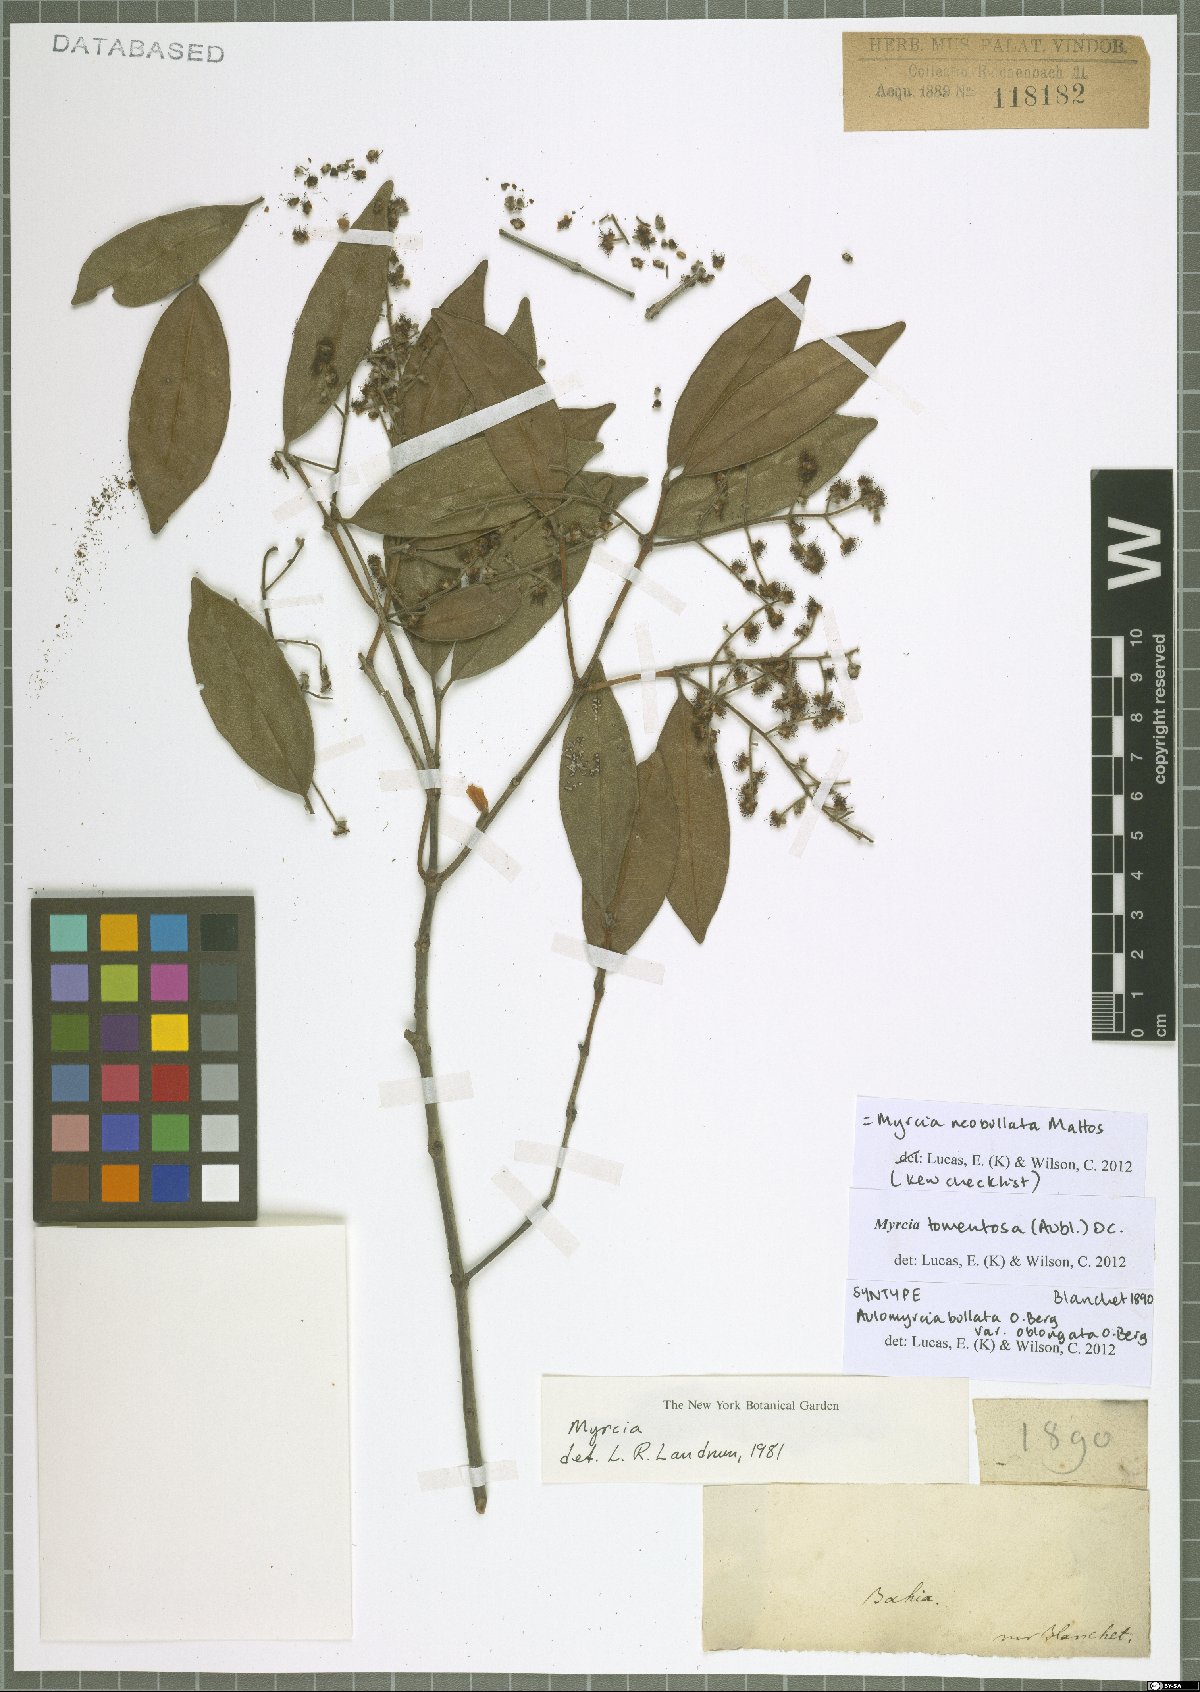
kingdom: Plantae
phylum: Tracheophyta
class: Magnoliopsida
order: Myrtales
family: Myrtaceae
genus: Myrcia
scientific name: Myrcia neobullata
